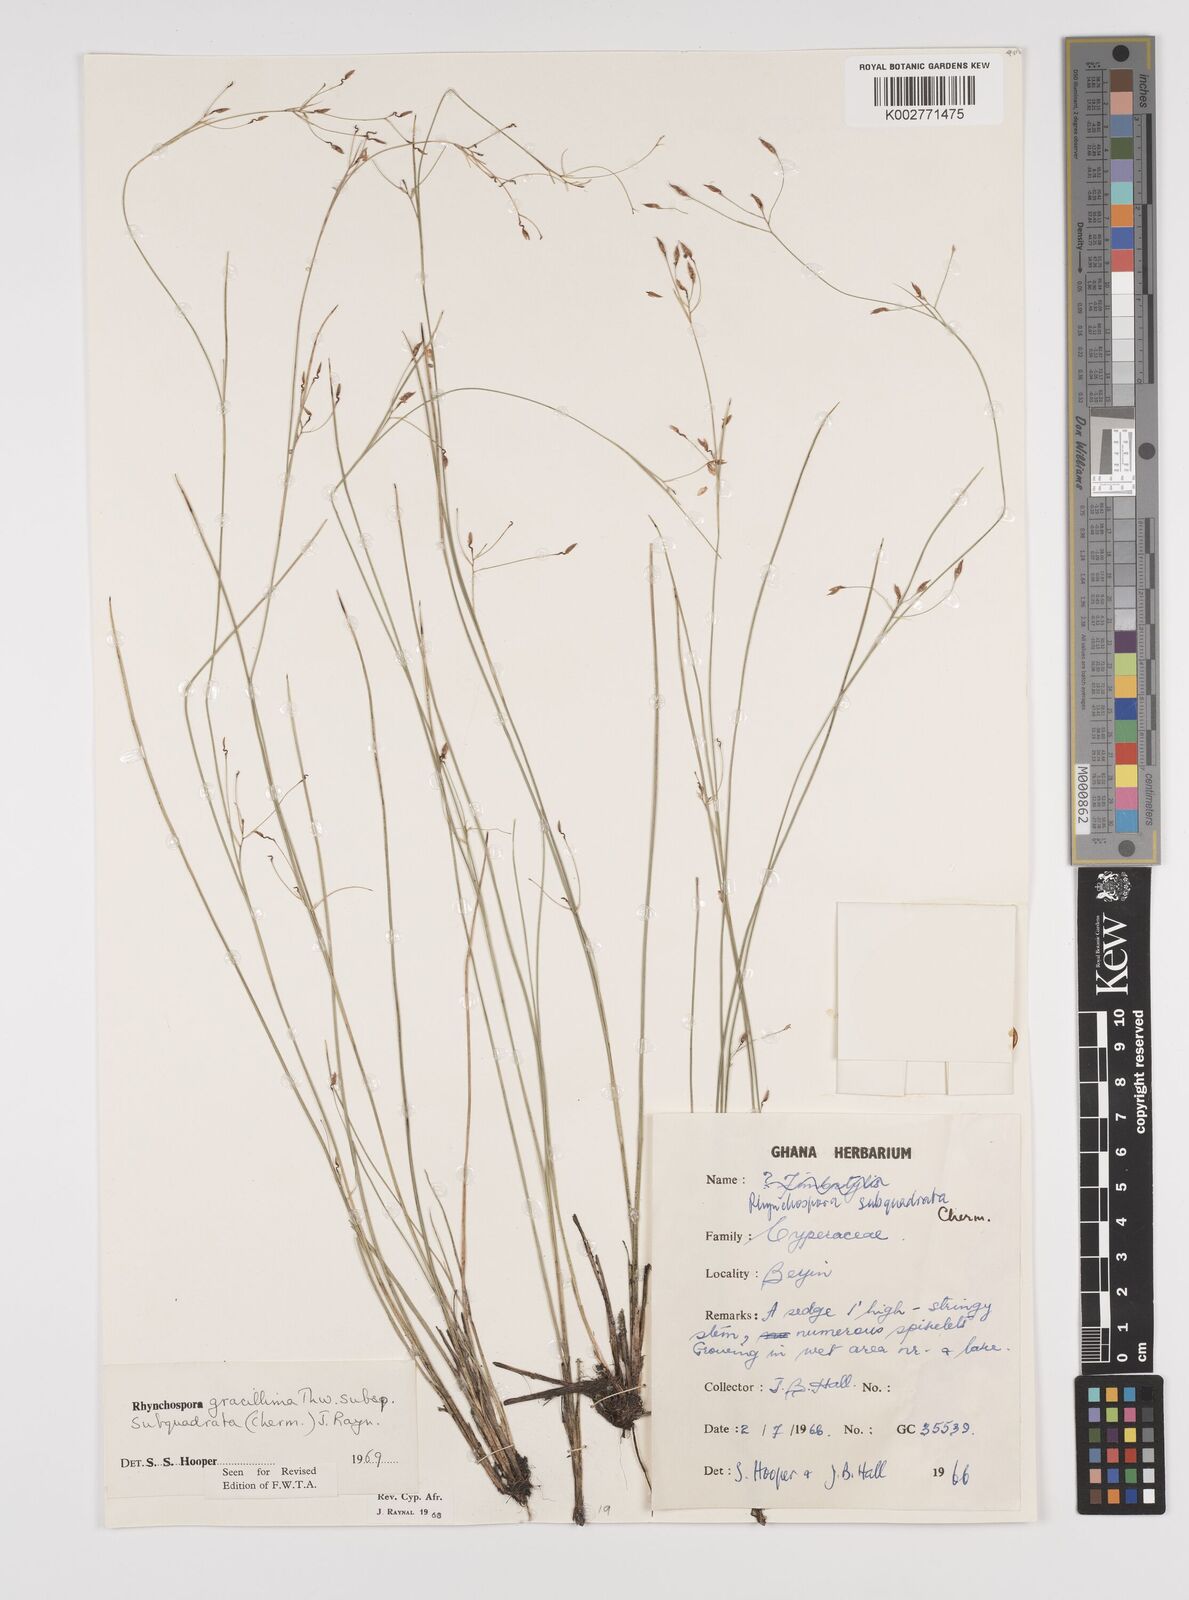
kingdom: Plantae
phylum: Tracheophyta
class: Liliopsida
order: Poales
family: Cyperaceae
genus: Rhynchospora
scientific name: Rhynchospora gracillima
